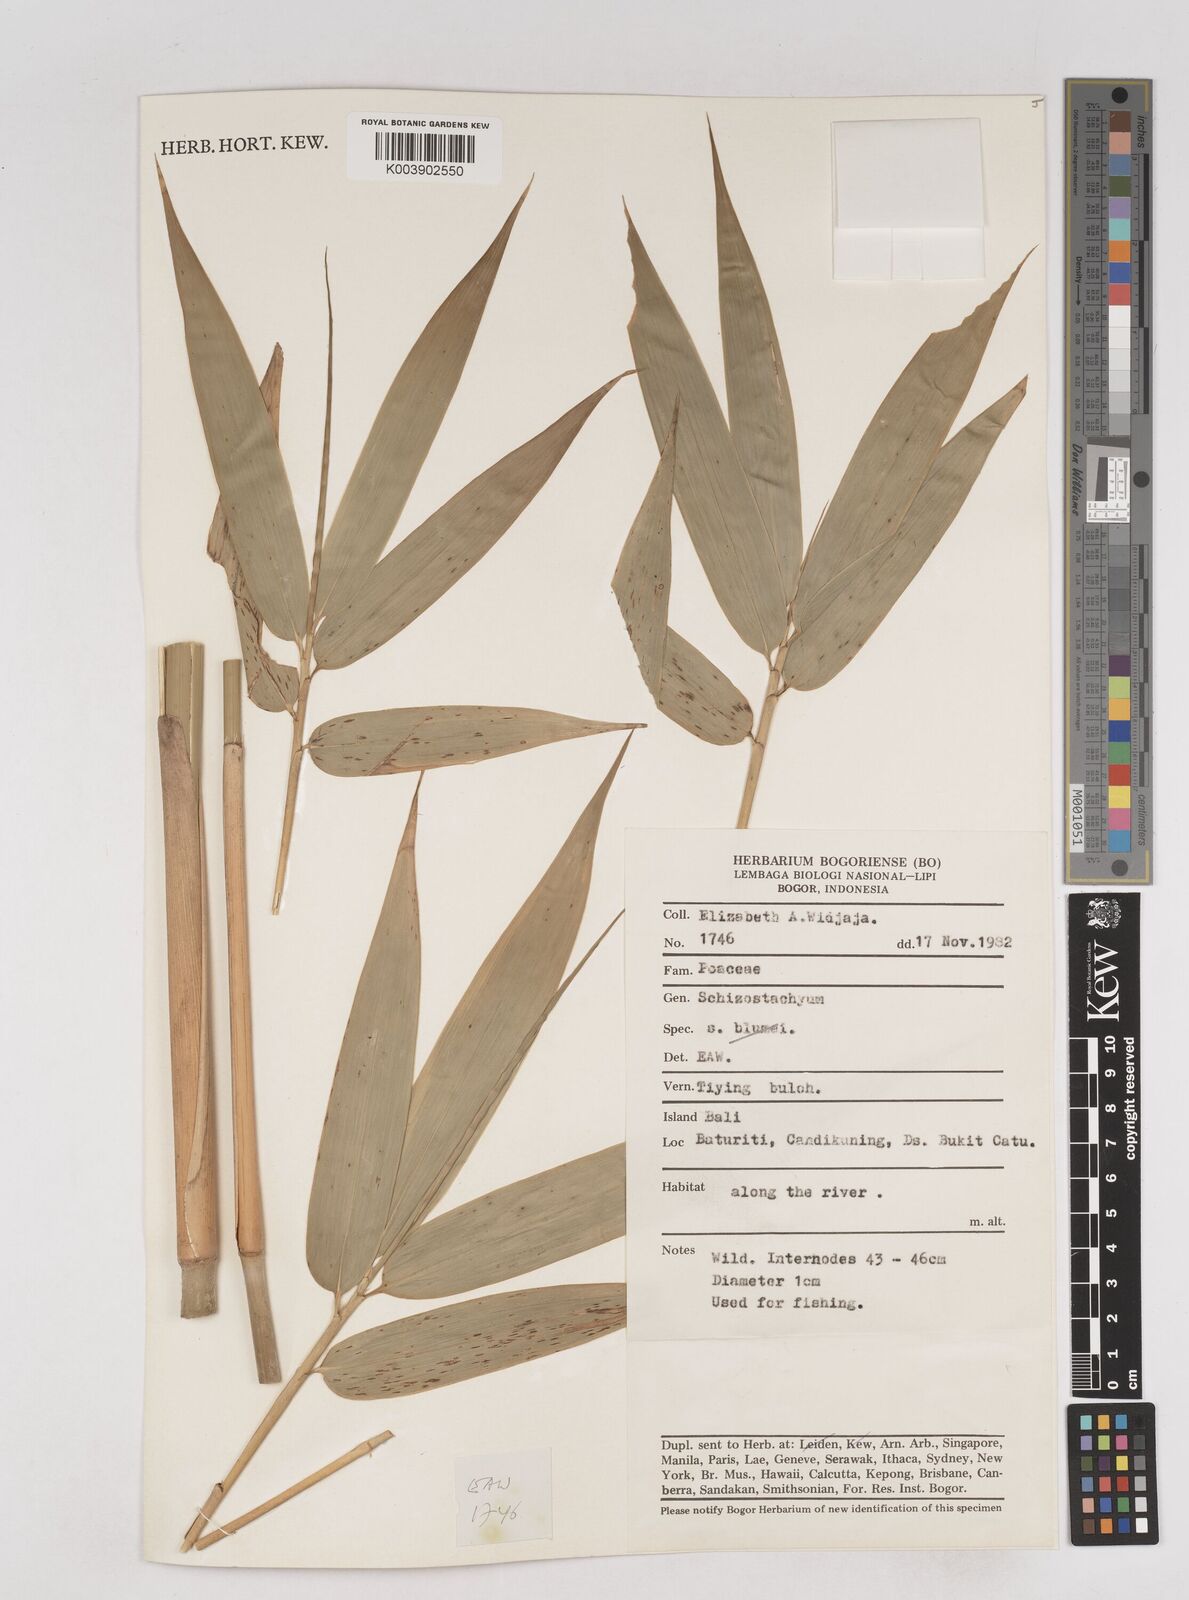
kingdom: Plantae
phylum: Tracheophyta
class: Liliopsida
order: Poales
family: Poaceae
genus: Schizostachyum
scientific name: Schizostachyum
